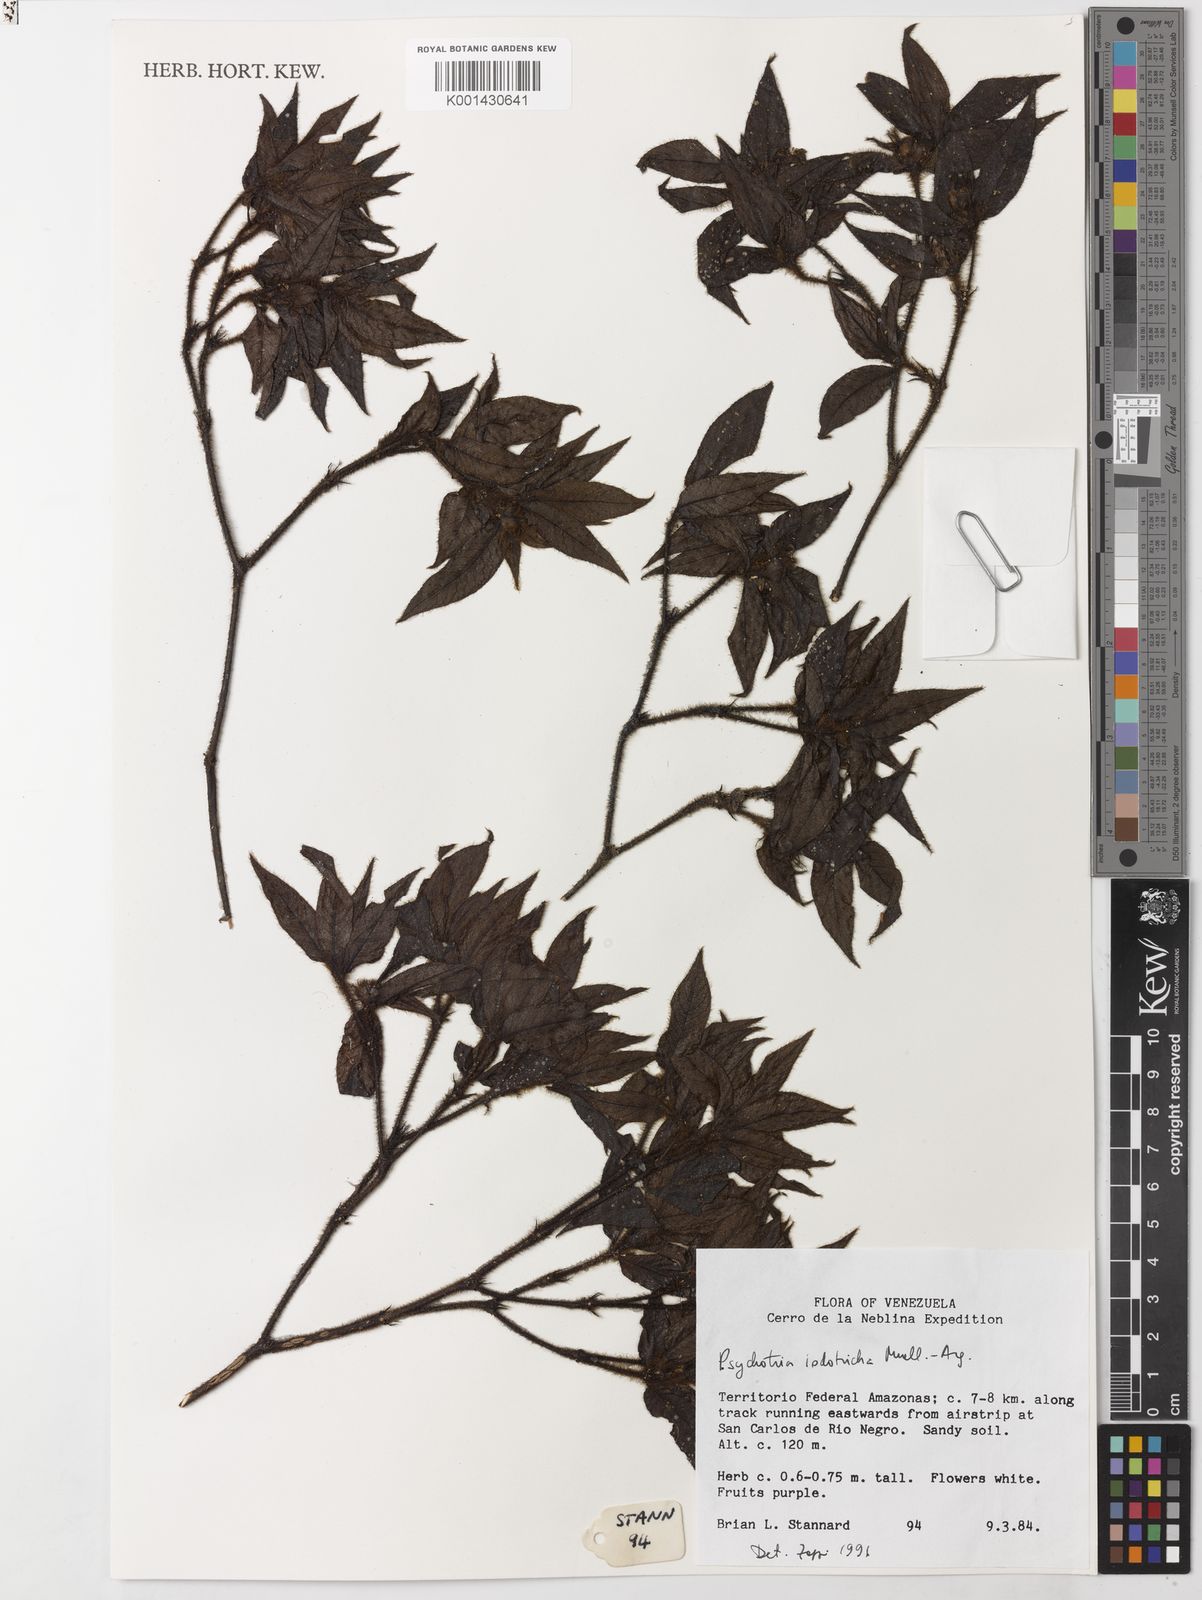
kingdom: Plantae
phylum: Tracheophyta
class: Magnoliopsida
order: Gentianales
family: Rubiaceae
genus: Psychotria
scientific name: Psychotria
